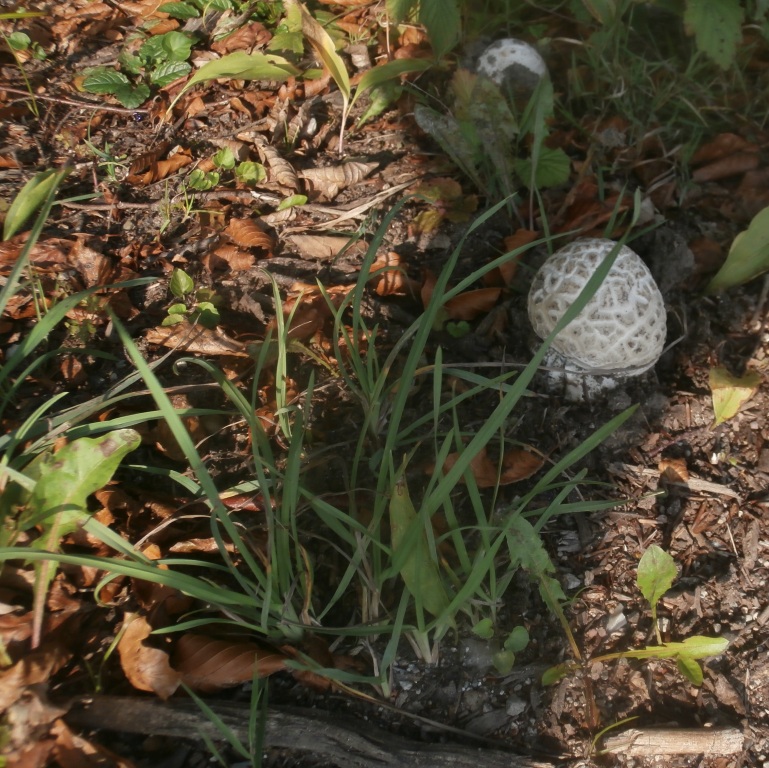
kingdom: Fungi
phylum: Basidiomycota
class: Agaricomycetes
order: Agaricales
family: Amanitaceae
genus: Amanita
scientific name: Amanita
